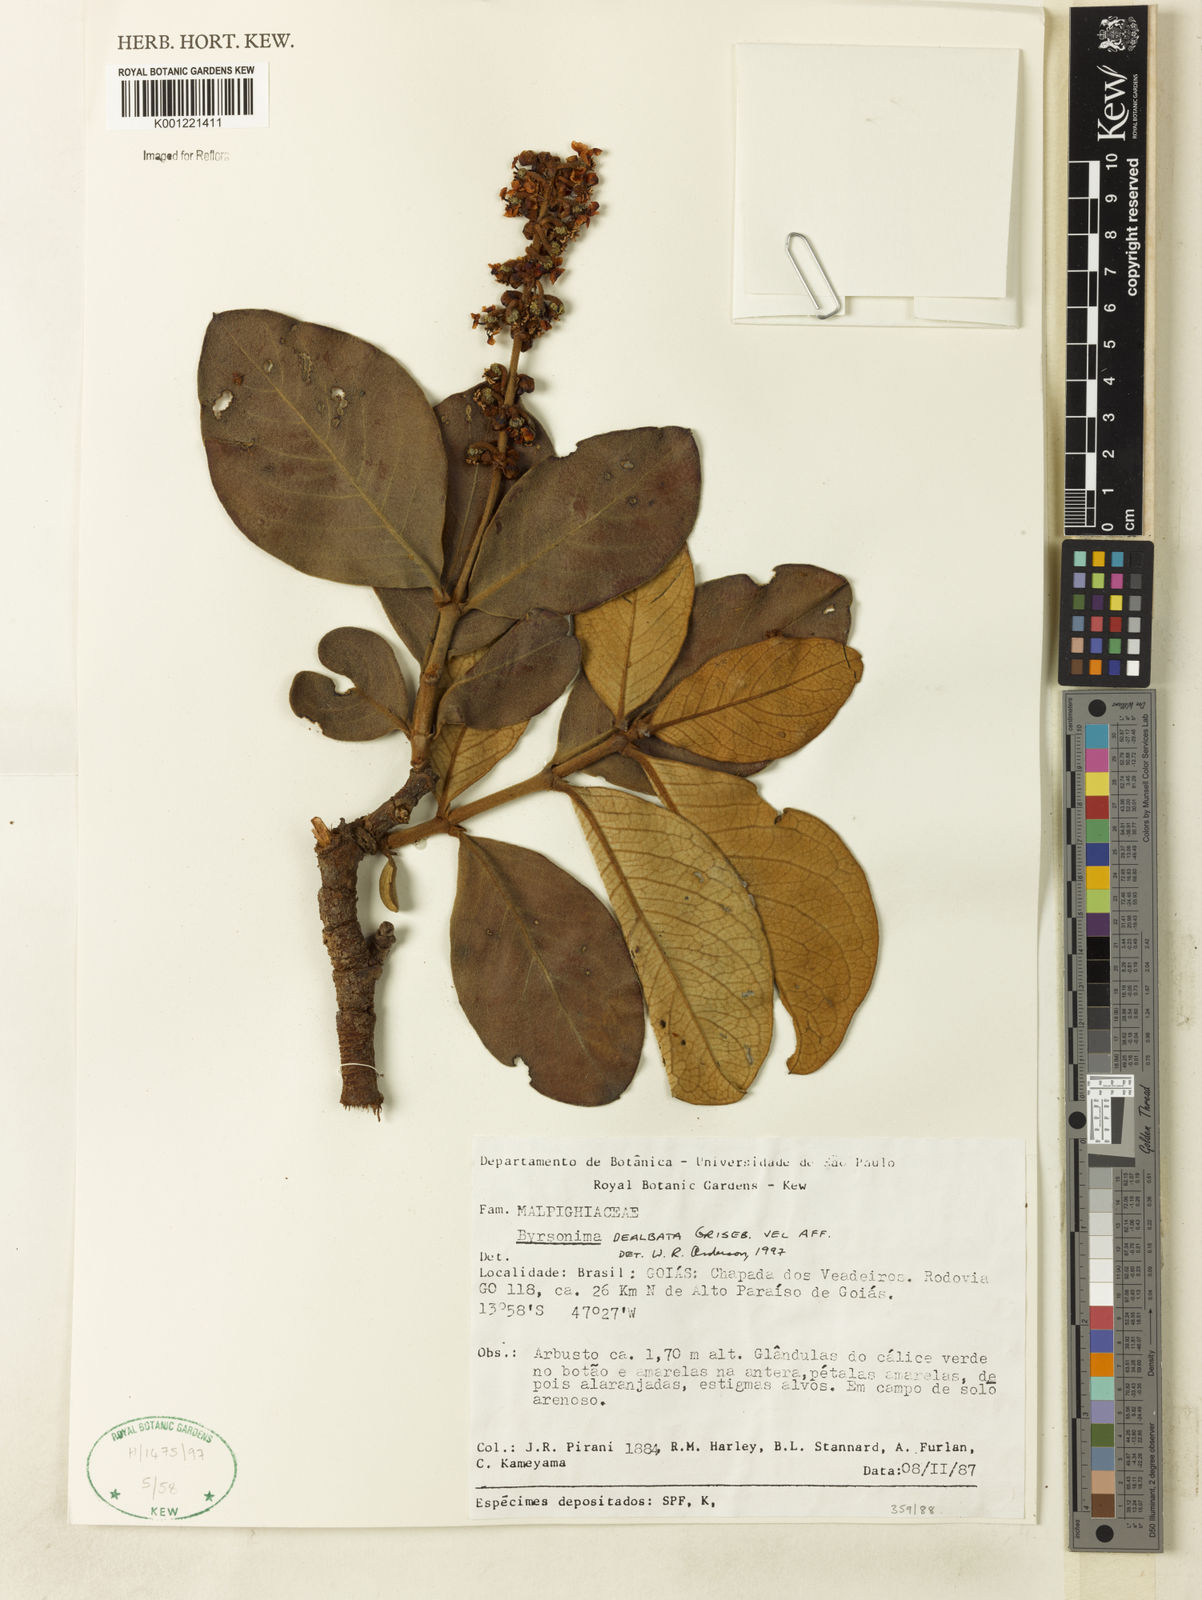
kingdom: Plantae
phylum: Tracheophyta
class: Magnoliopsida
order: Malpighiales
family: Malpighiaceae
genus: Byrsonima
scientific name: Byrsonima dealbata
